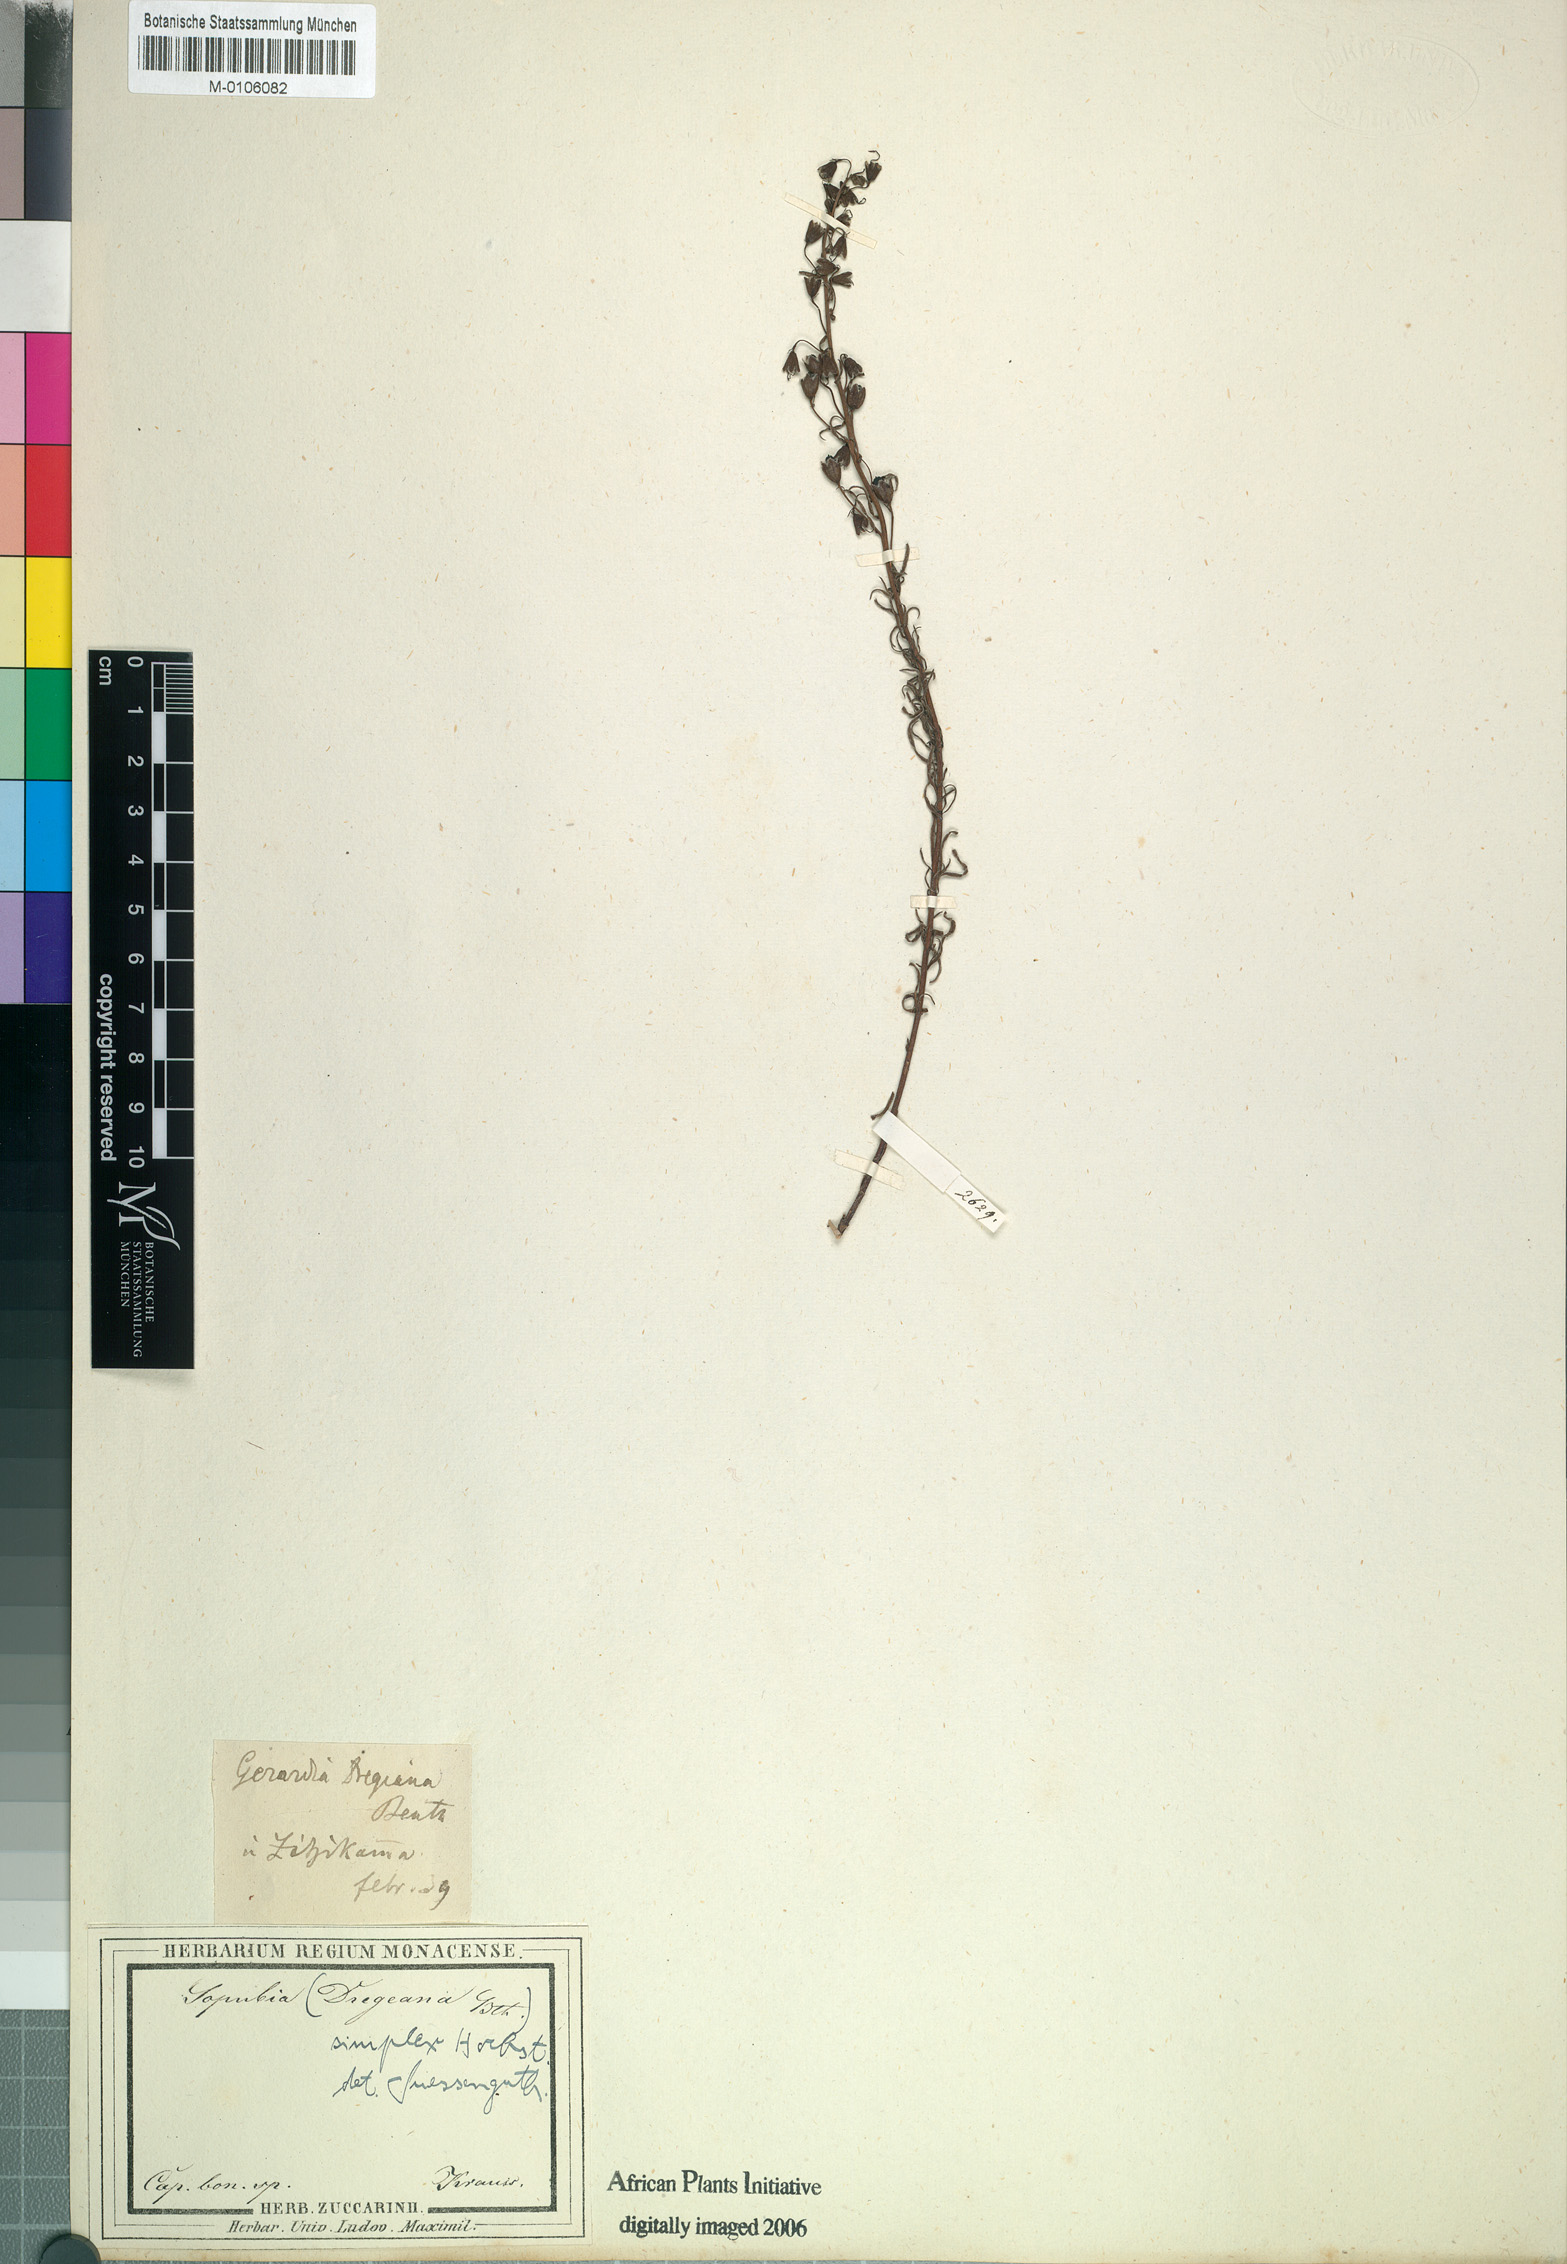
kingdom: Plantae
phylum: Tracheophyta
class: Magnoliopsida
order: Lamiales
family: Orobanchaceae
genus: Sopubia
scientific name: Sopubia simplex
